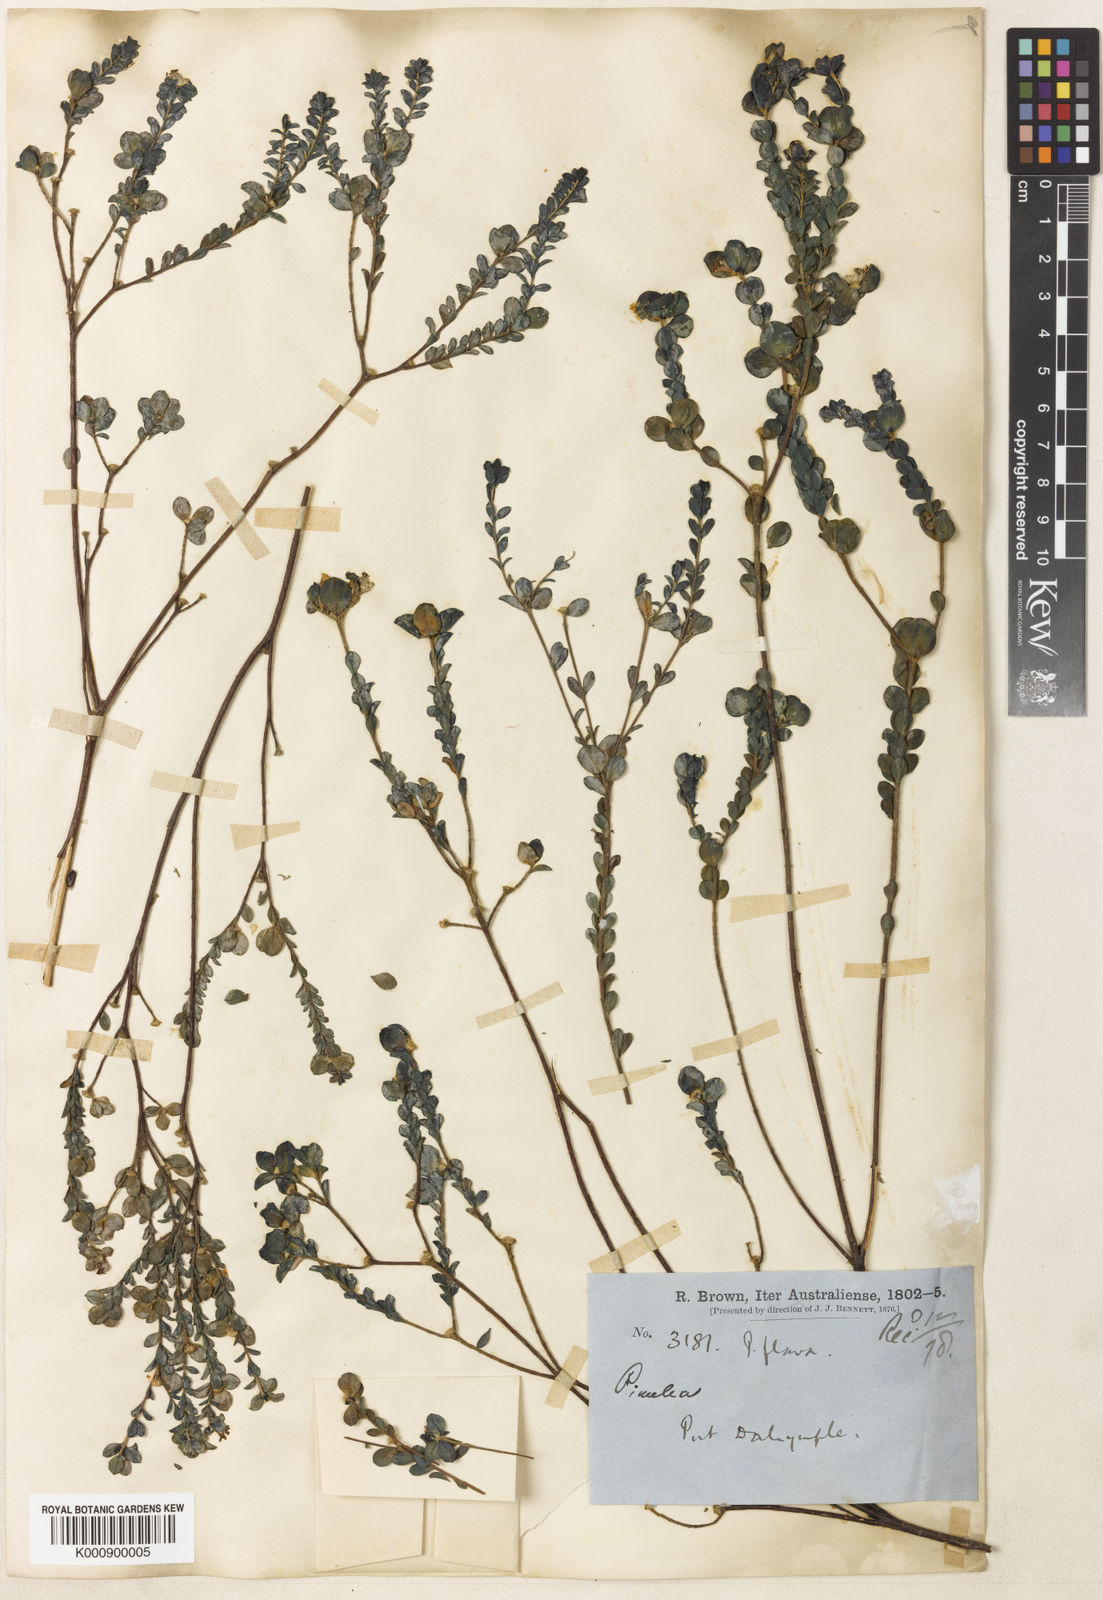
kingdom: Plantae
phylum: Tracheophyta
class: Magnoliopsida
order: Malvales
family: Thymelaeaceae
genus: Pimelea
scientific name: Pimelea sulphurea
